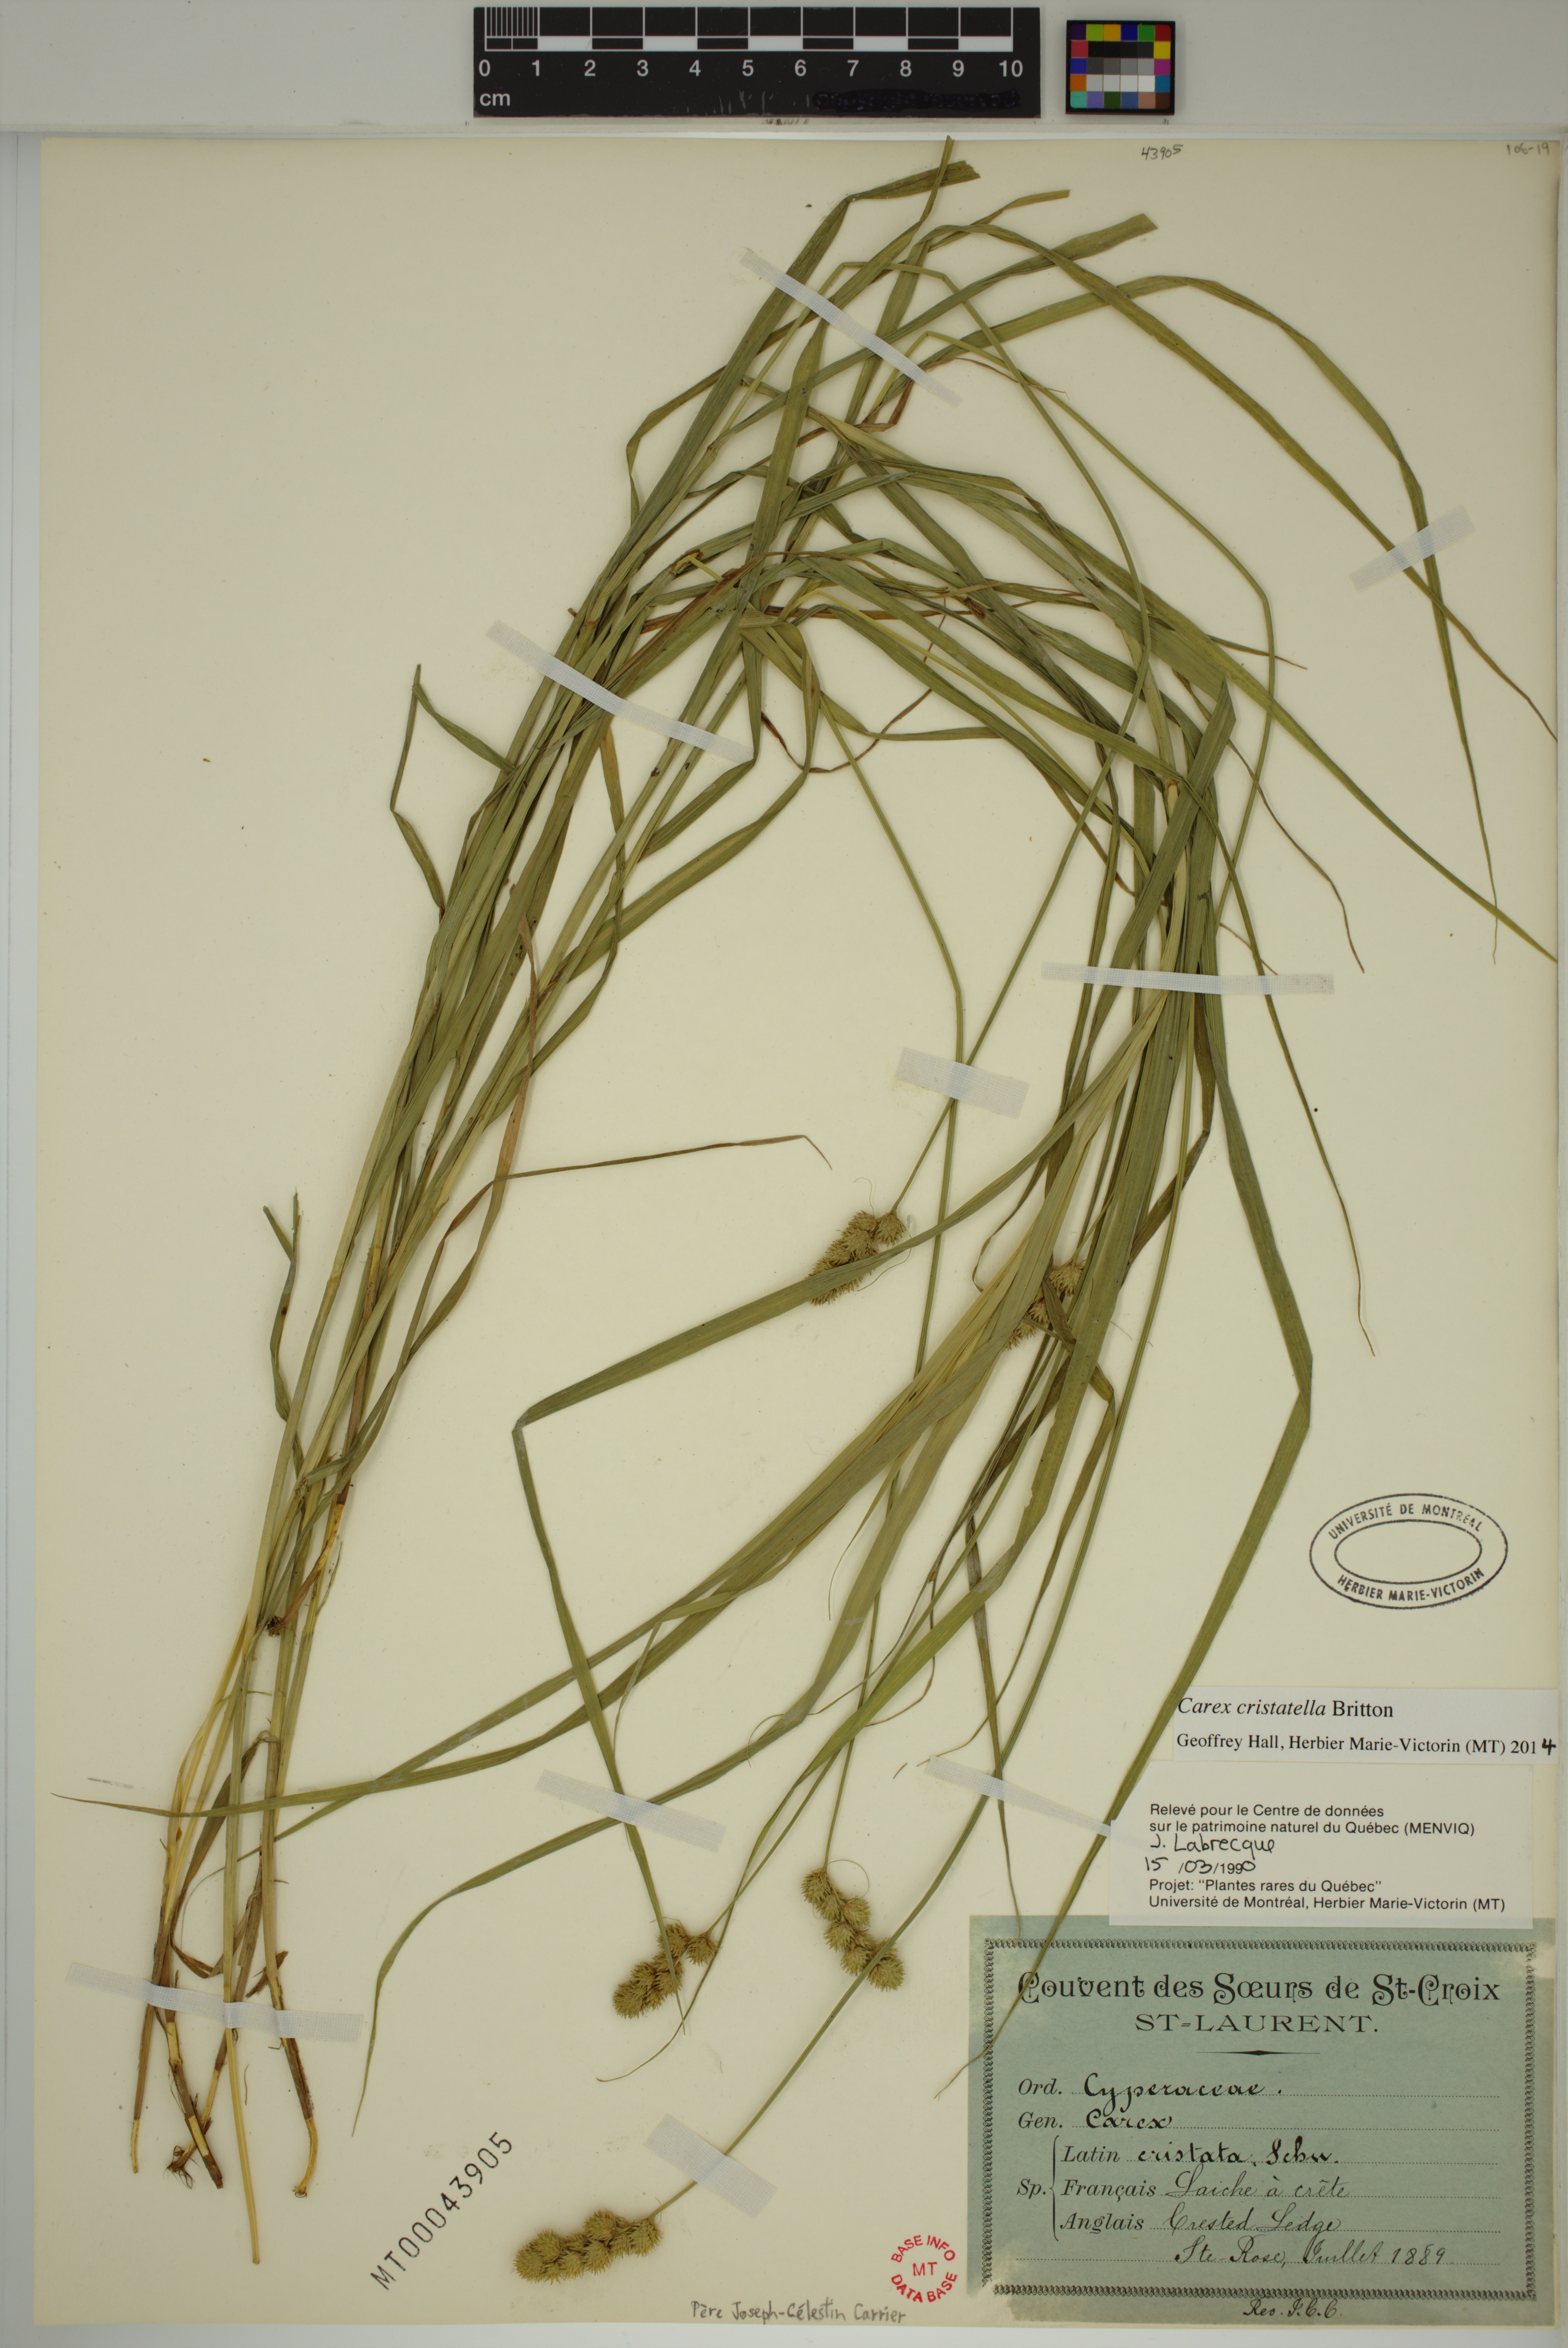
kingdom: Plantae
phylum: Tracheophyta
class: Liliopsida
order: Poales
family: Cyperaceae
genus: Carex
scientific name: Carex cristatella
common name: Crested oval sedge
